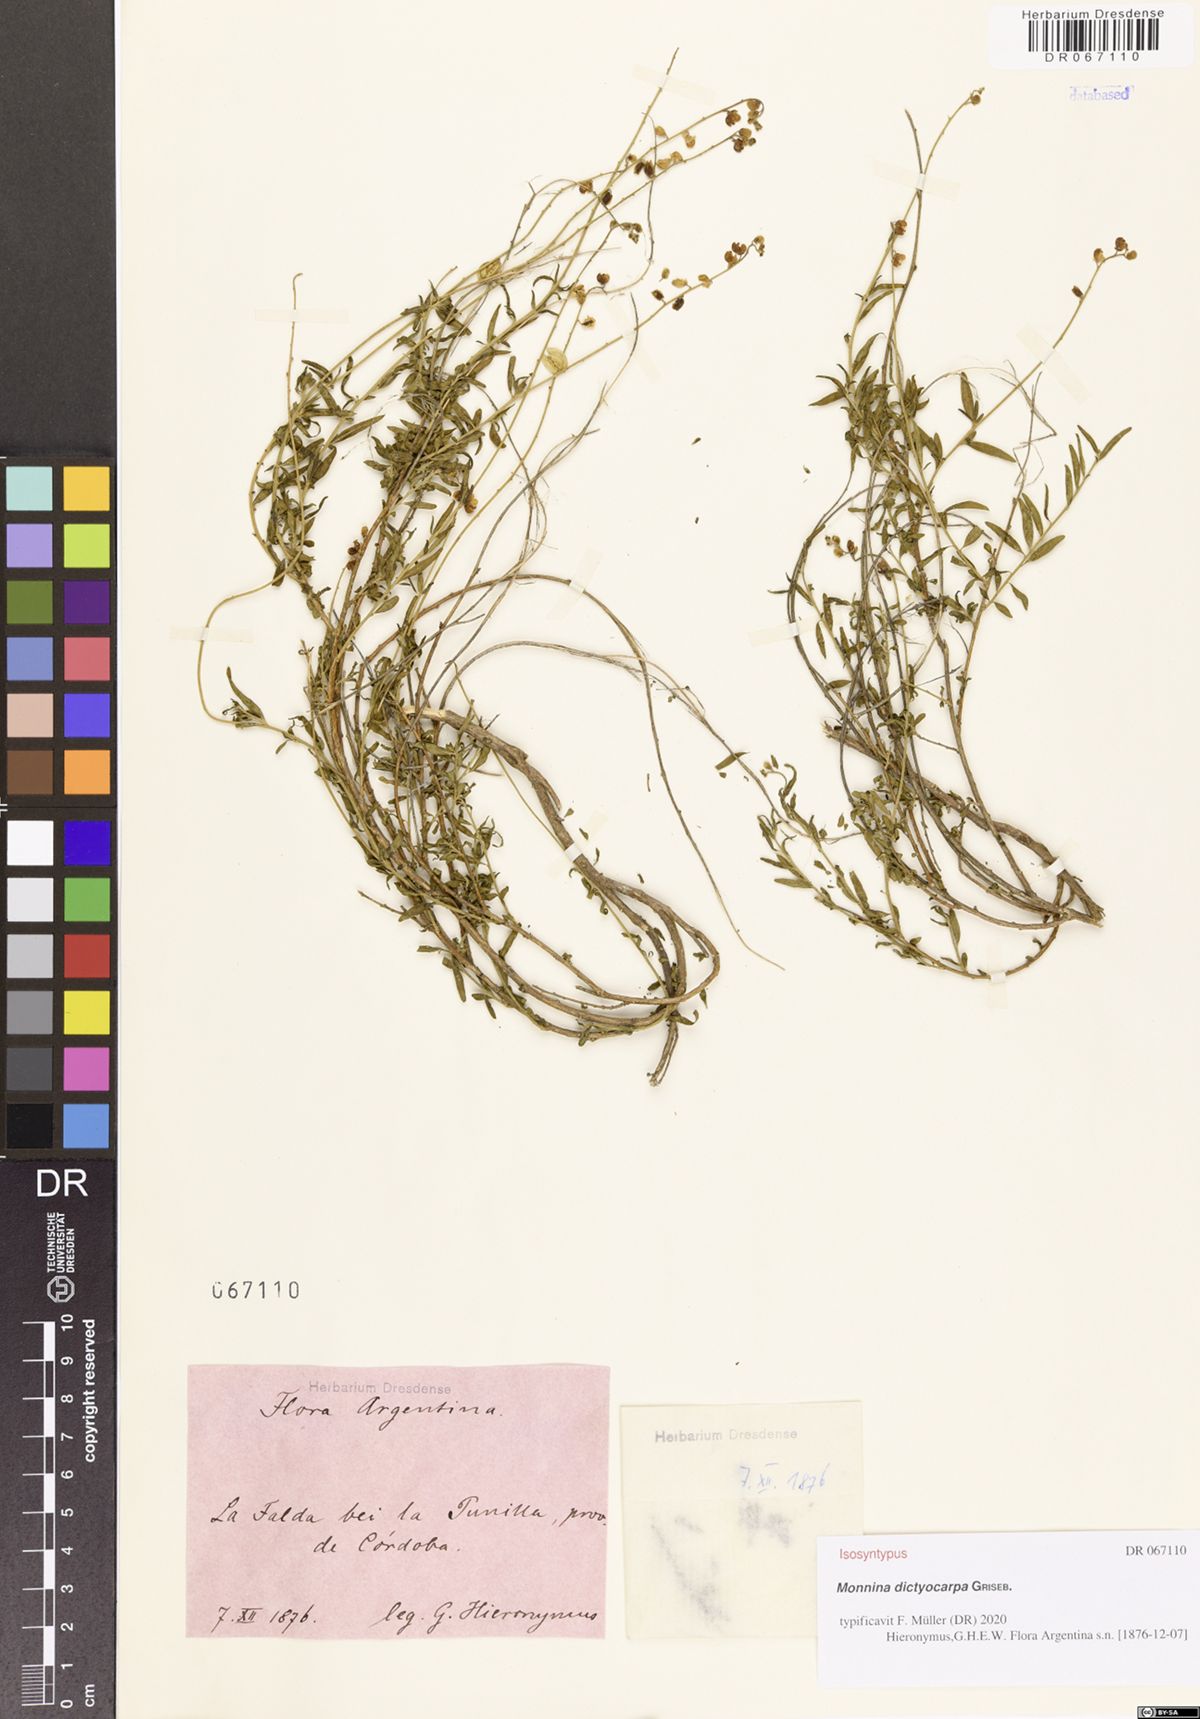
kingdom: Plantae
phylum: Tracheophyta
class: Magnoliopsida
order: Fabales
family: Polygalaceae
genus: Monnina
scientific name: Monnina dictyocarpa
